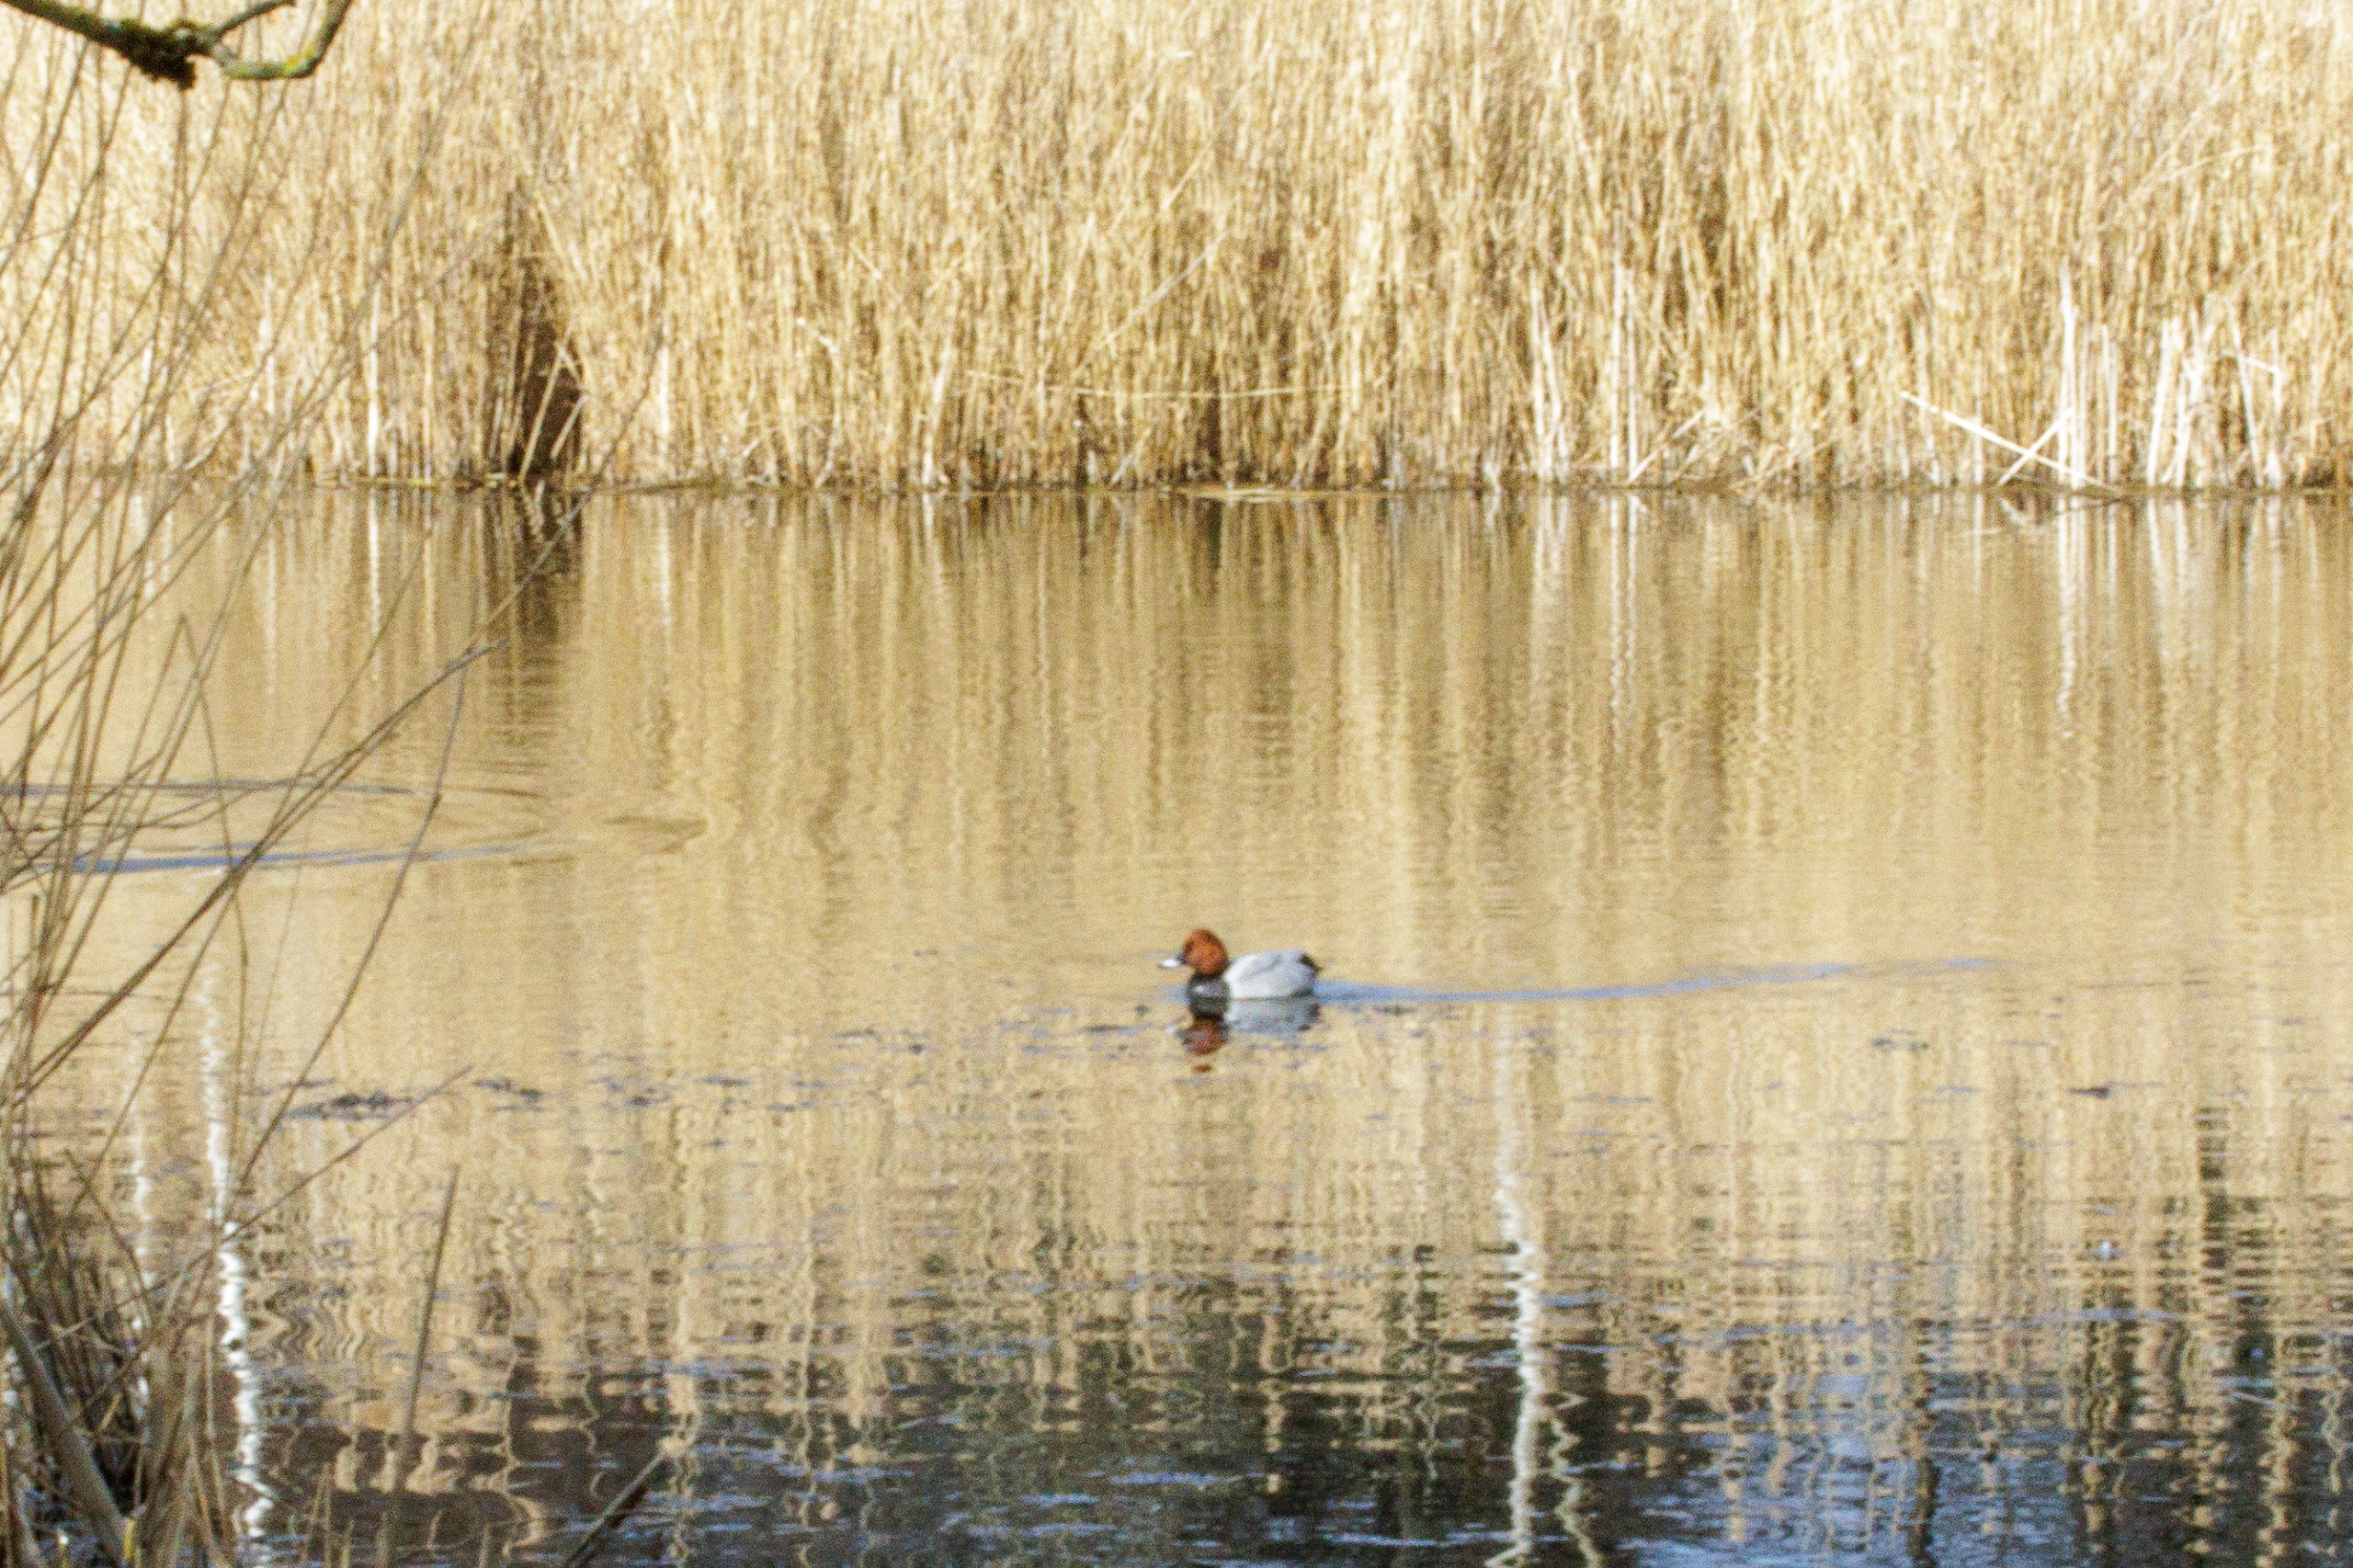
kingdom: Animalia
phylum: Chordata
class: Aves
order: Anseriformes
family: Anatidae
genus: Aythya
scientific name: Aythya ferina
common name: Taffeland
